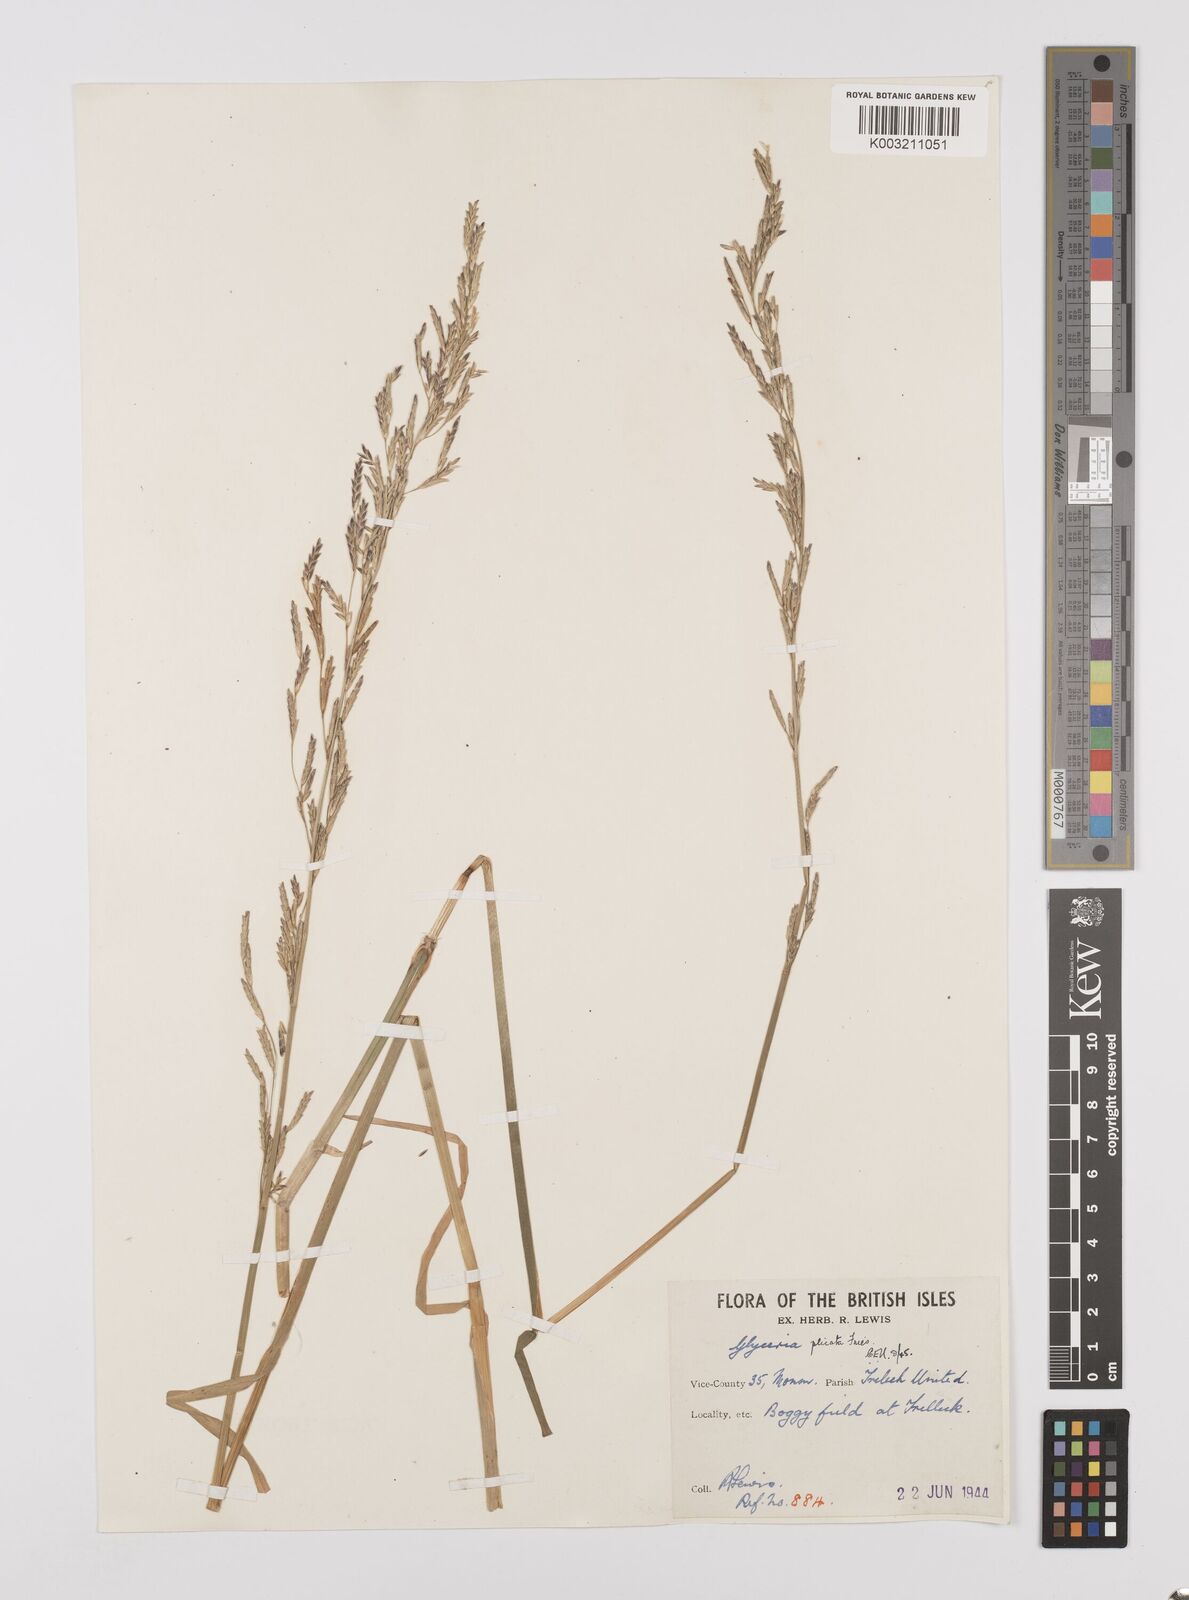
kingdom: Plantae
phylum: Tracheophyta
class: Liliopsida
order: Poales
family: Poaceae
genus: Glyceria
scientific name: Glyceria notata
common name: Plicate sweet-grass
